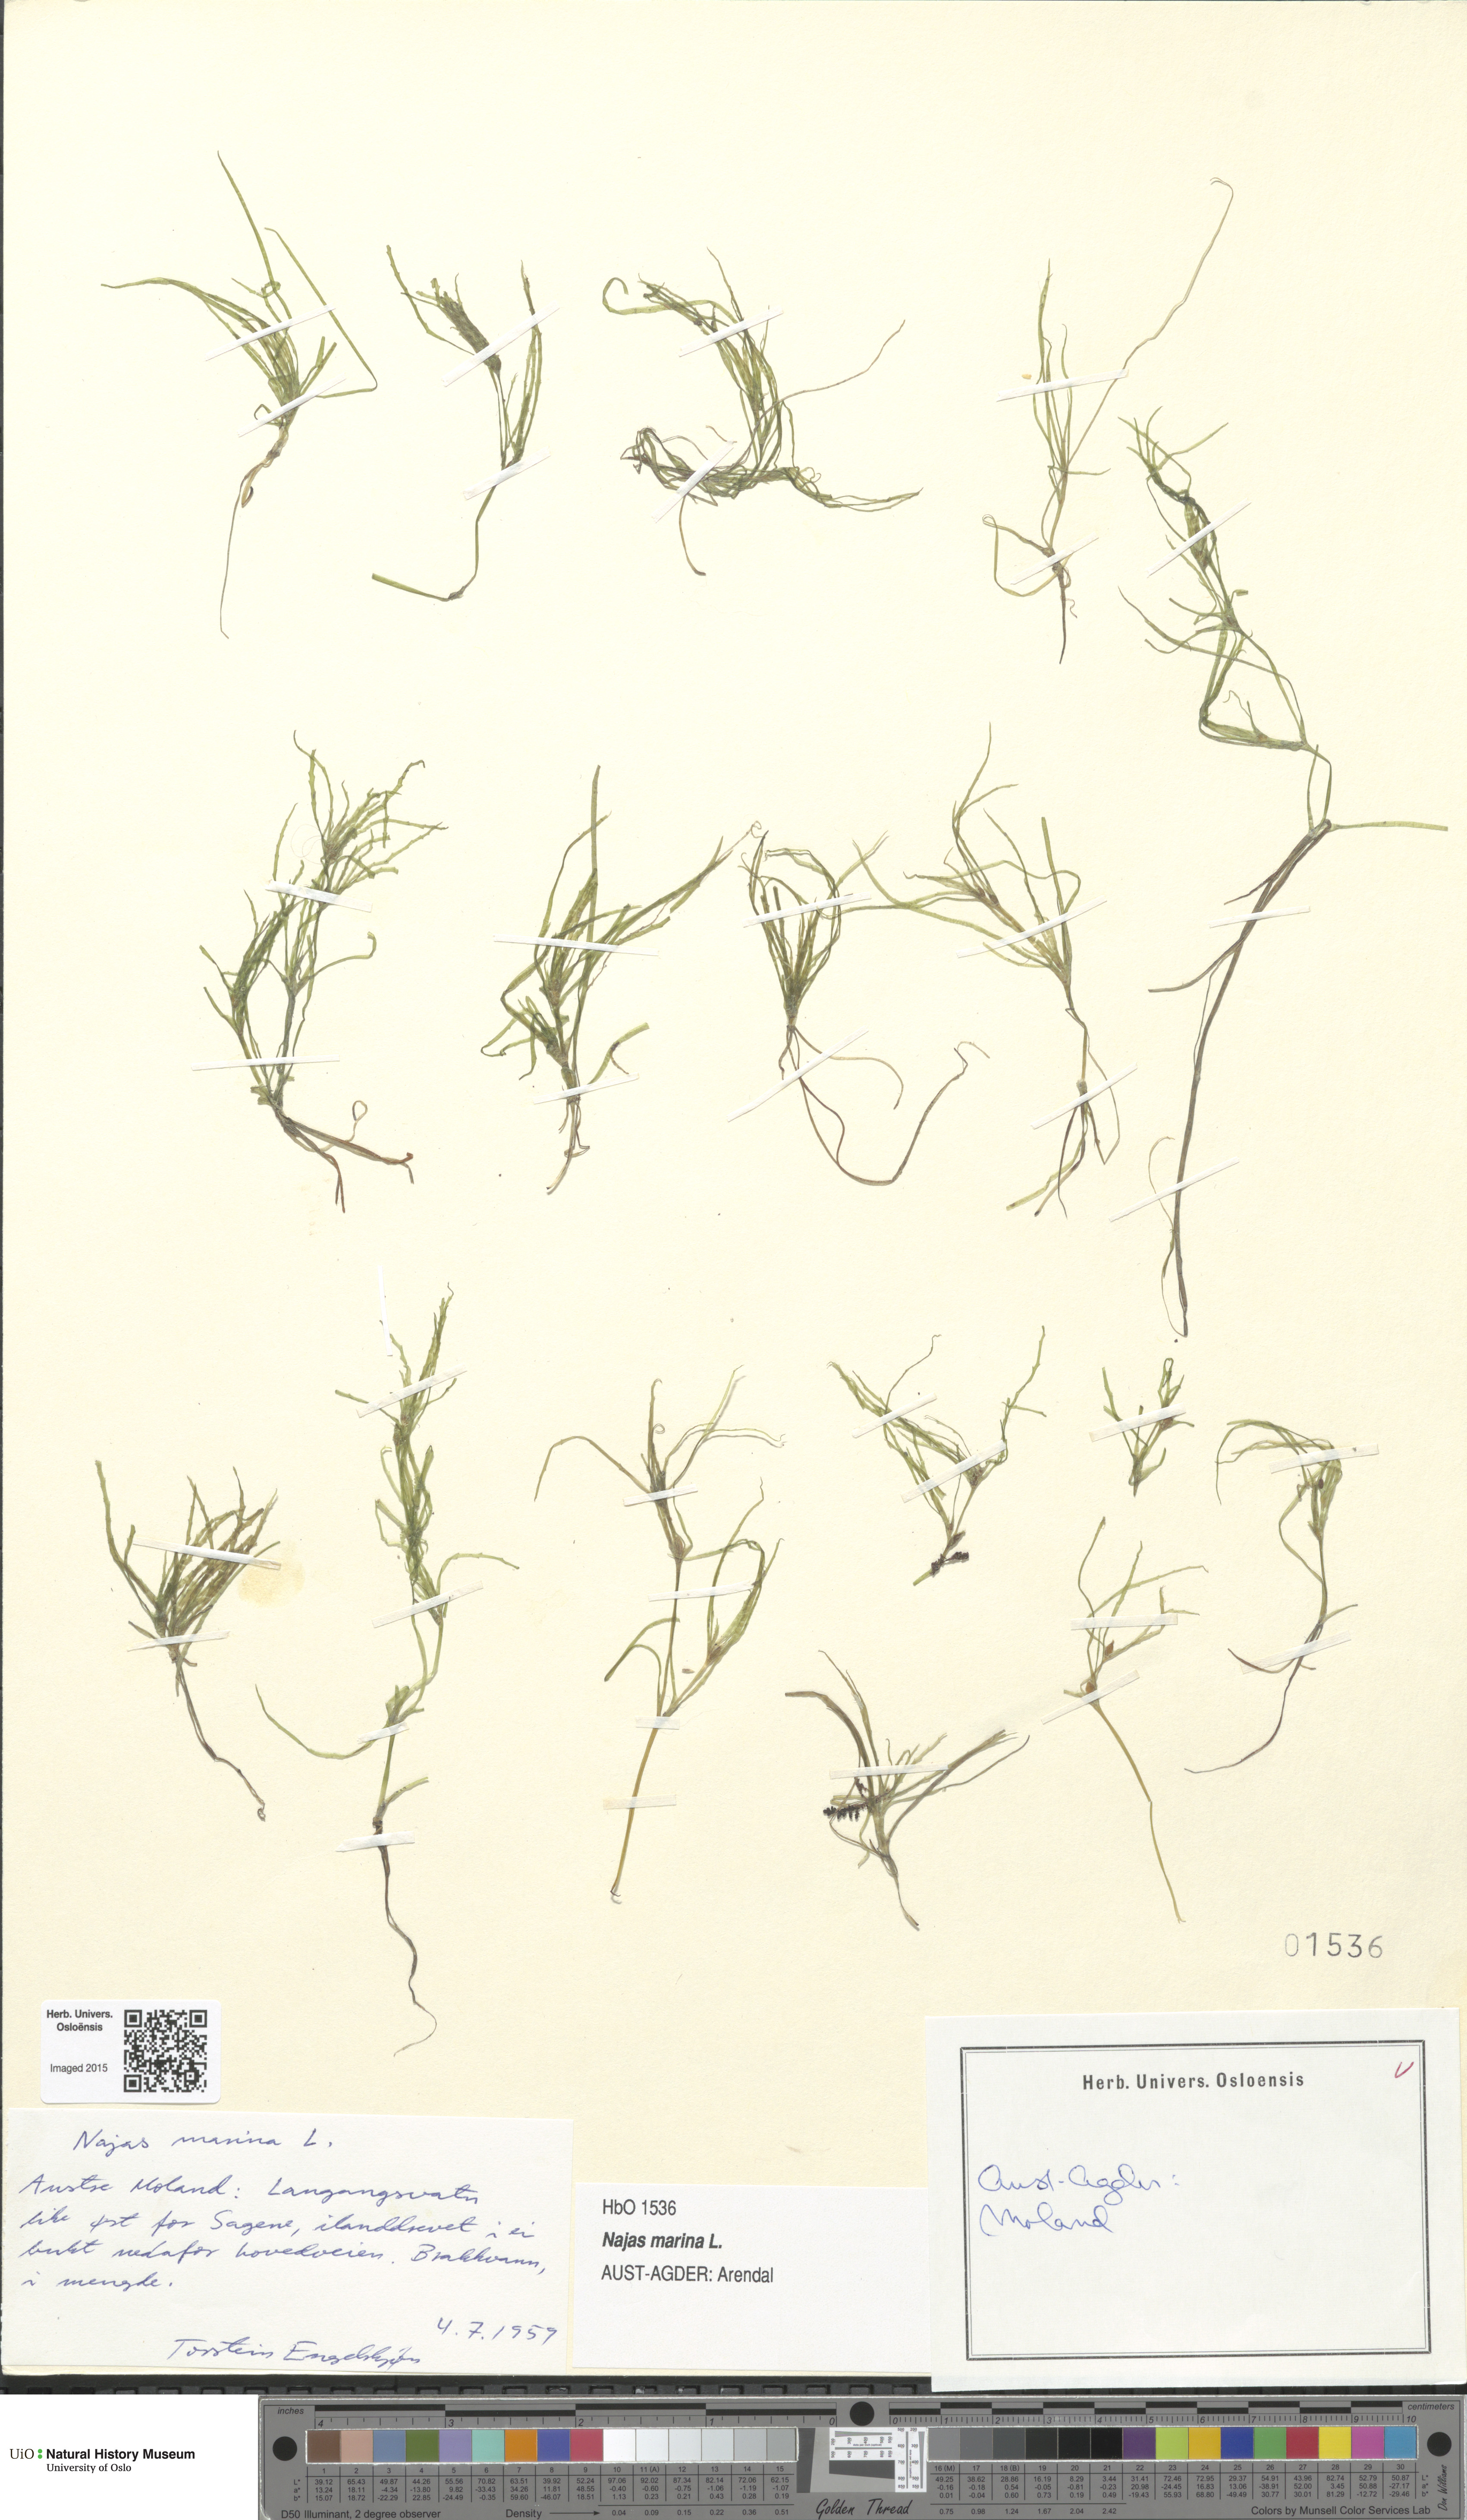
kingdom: Plantae
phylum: Tracheophyta
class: Liliopsida
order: Alismatales
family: Hydrocharitaceae
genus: Najas
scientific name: Najas marina
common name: Holly-leaved naiad
